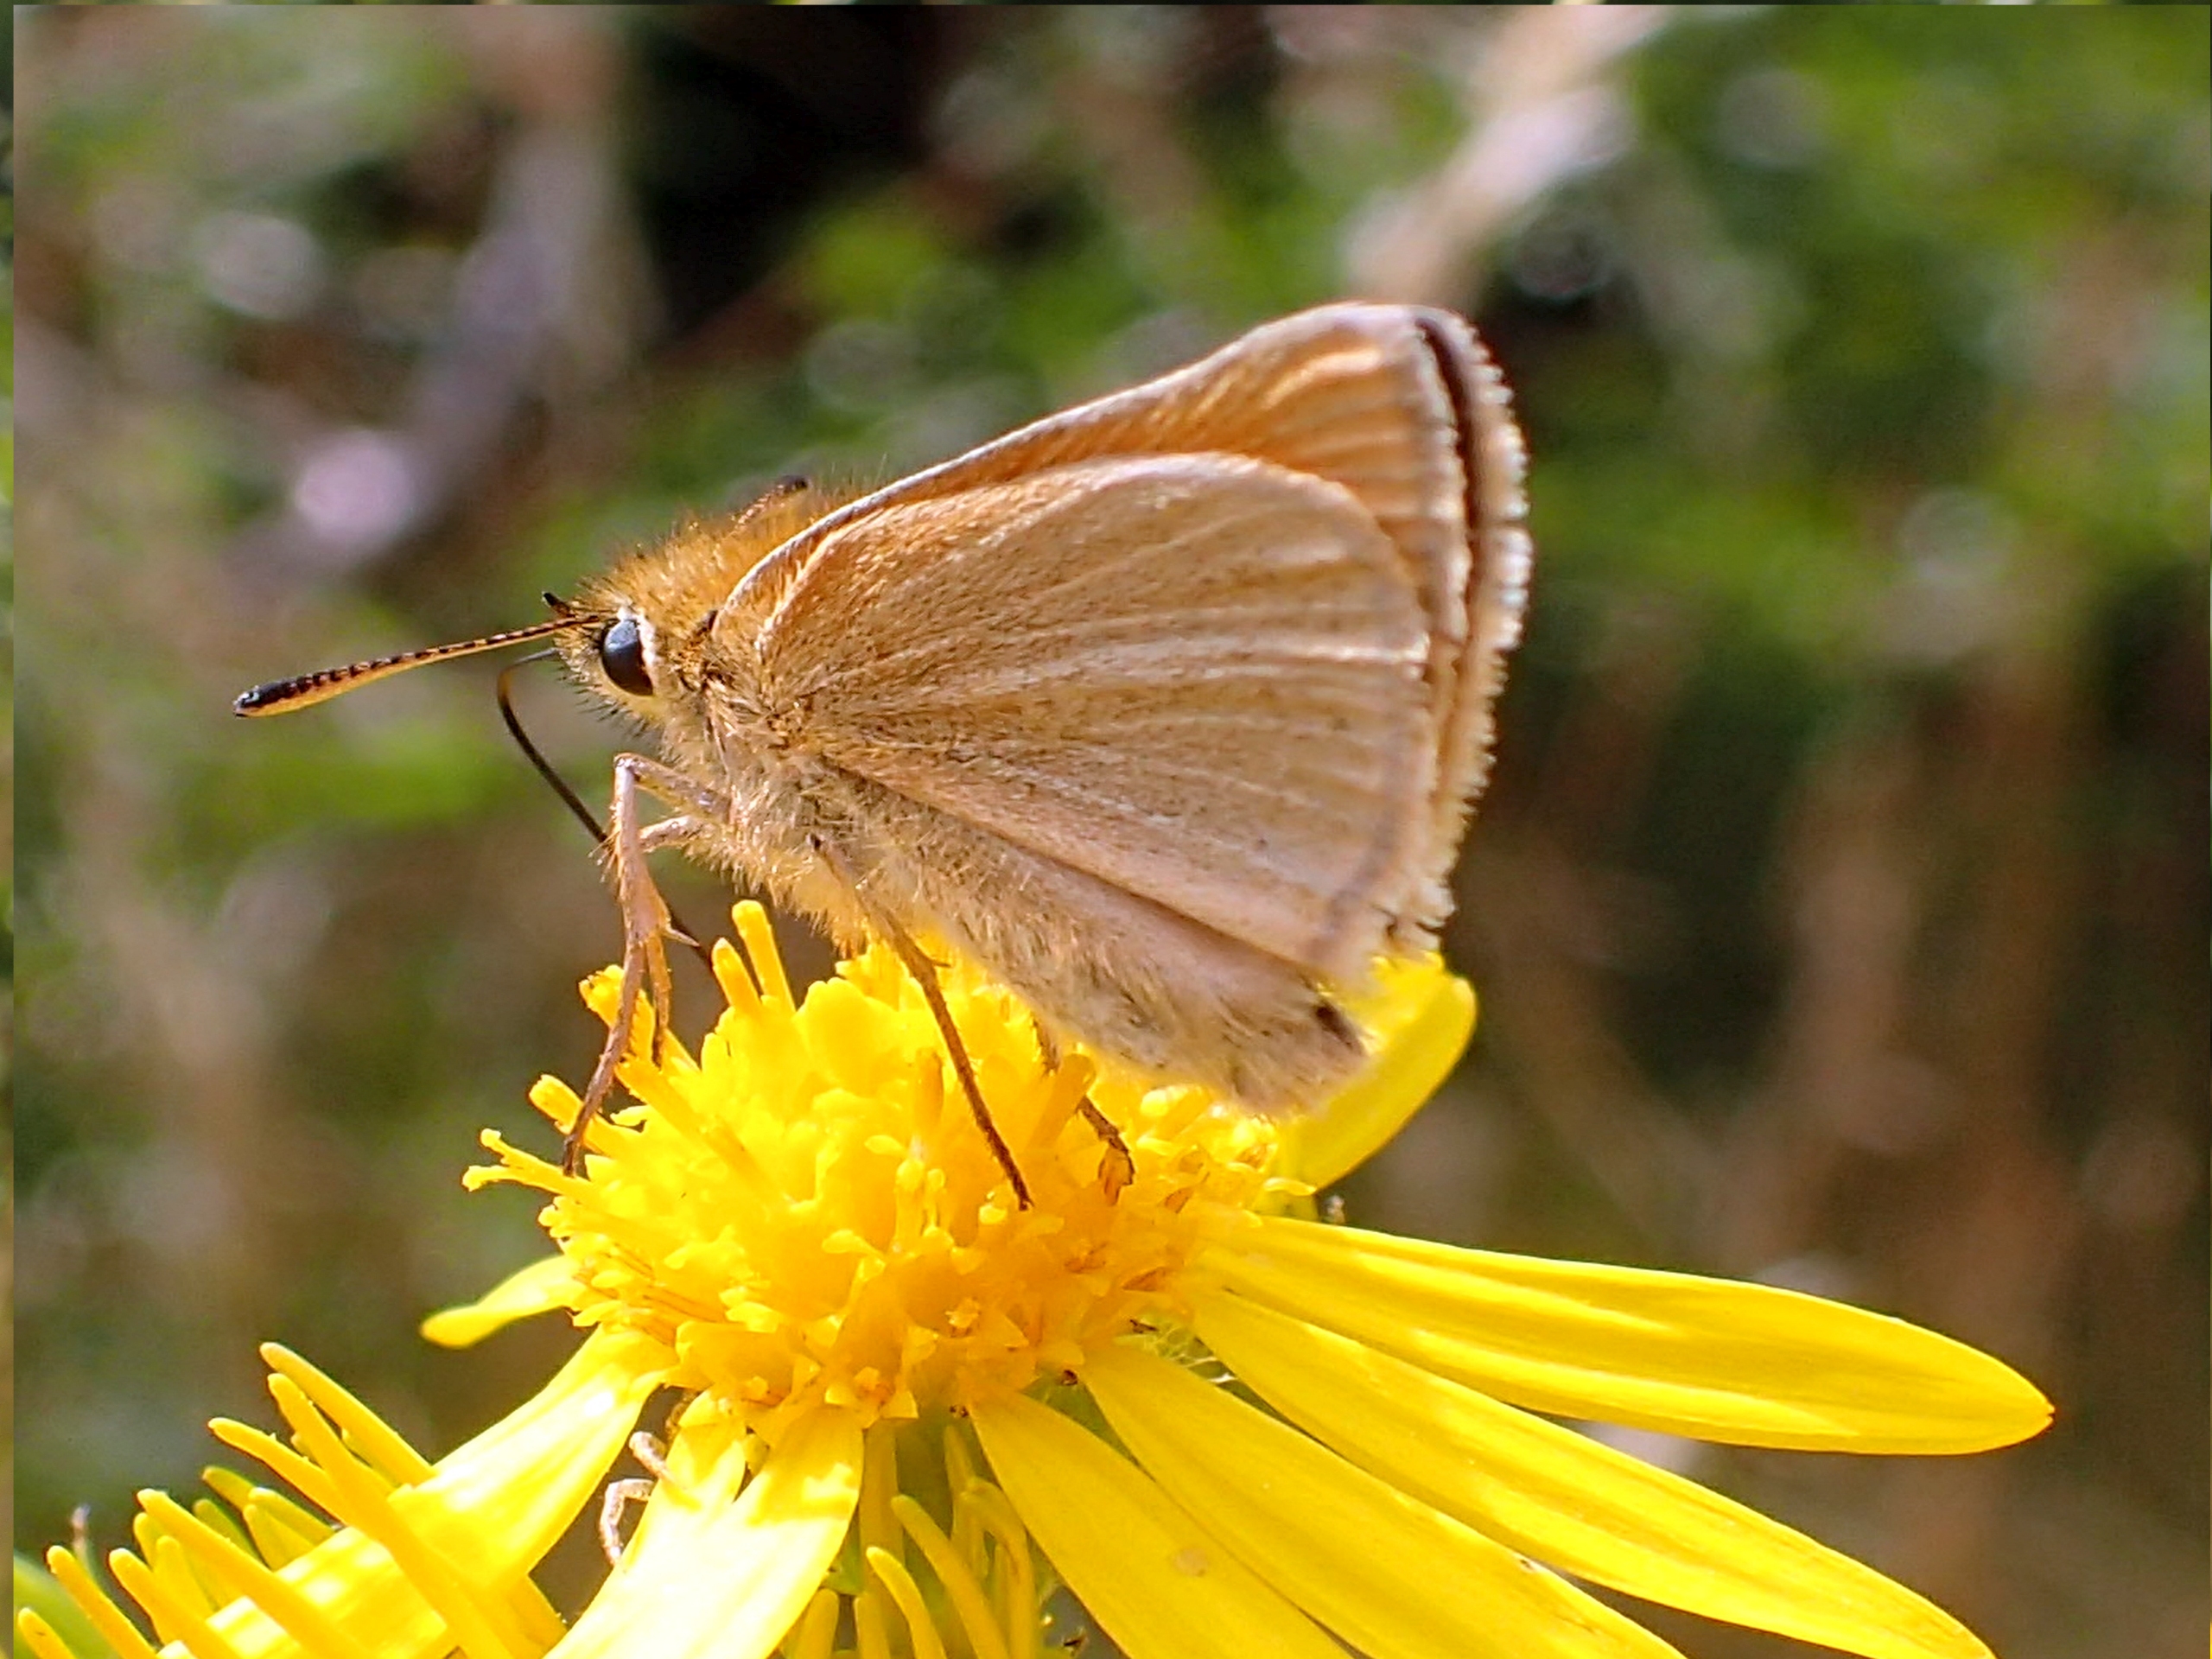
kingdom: Animalia
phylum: Arthropoda
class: Insecta
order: Lepidoptera
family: Hesperiidae
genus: Thymelicus
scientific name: Thymelicus sylvestris
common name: Skråstregbredpande
